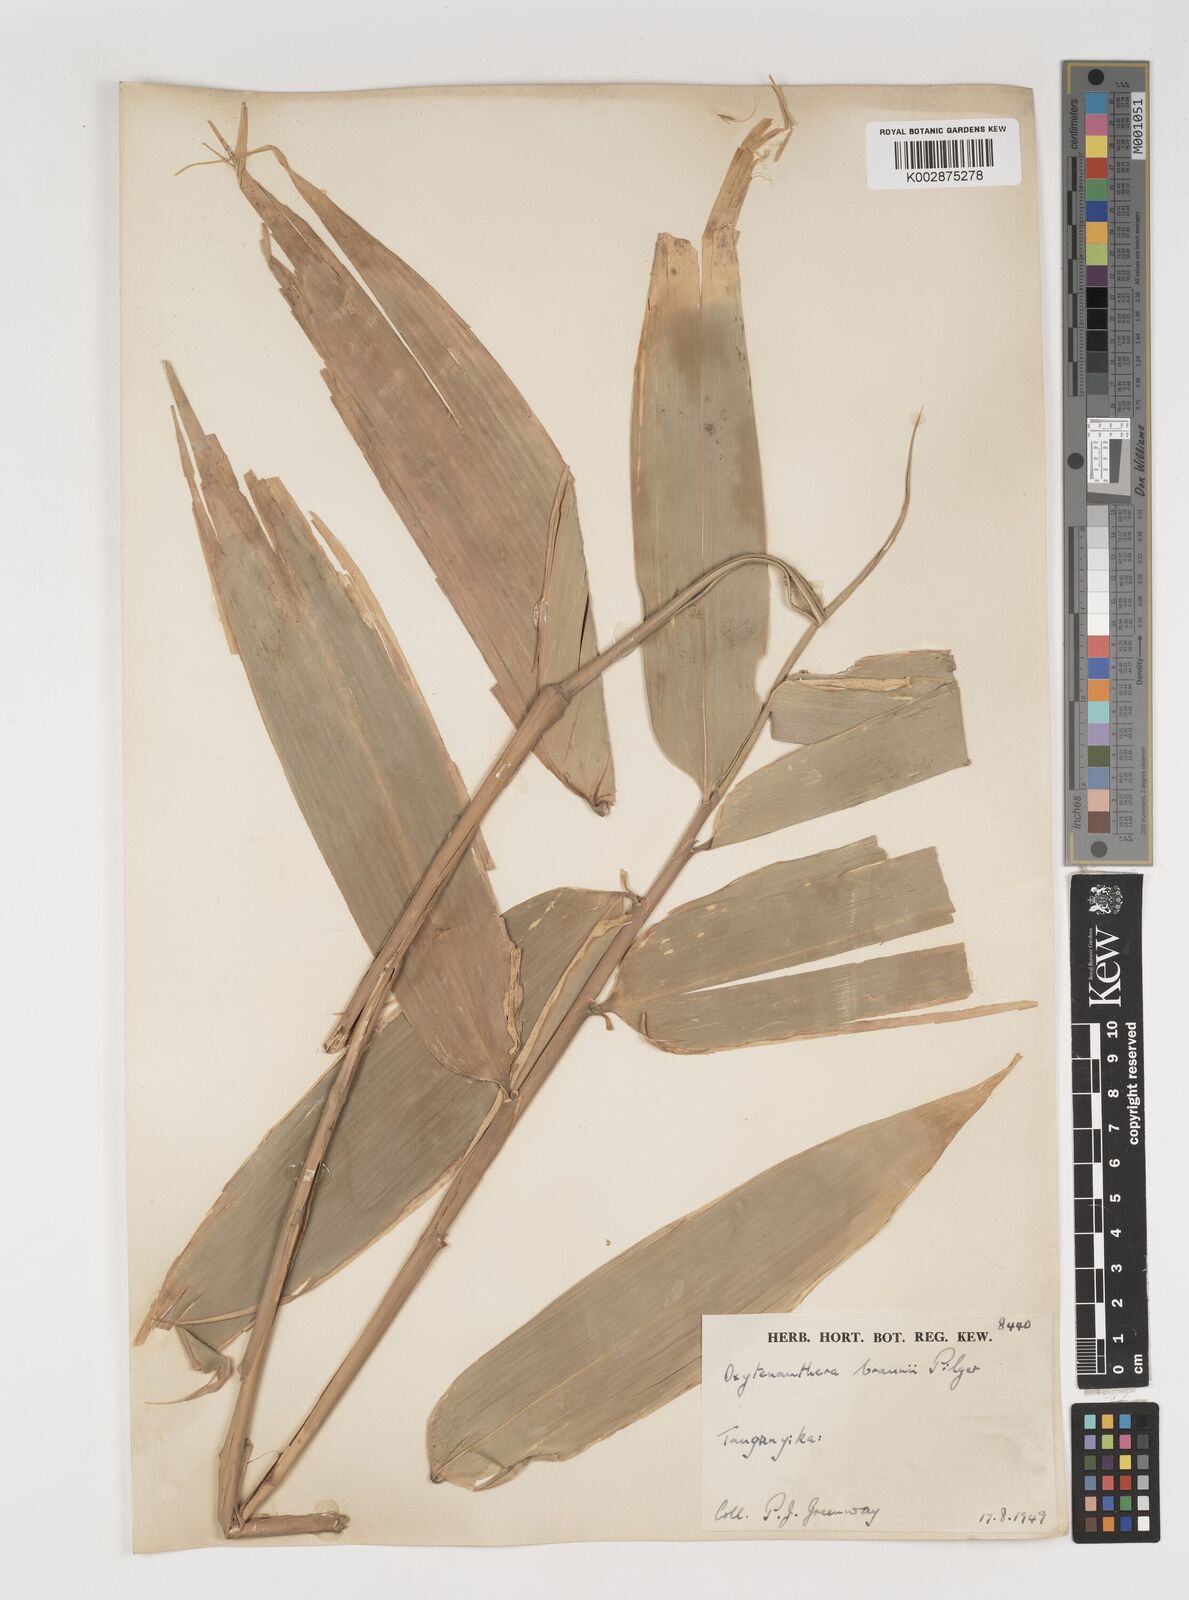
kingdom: Plantae
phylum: Tracheophyta
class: Liliopsida
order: Poales
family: Poaceae
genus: Oxytenanthera
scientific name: Oxytenanthera abyssinica
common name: Wine bamboo
